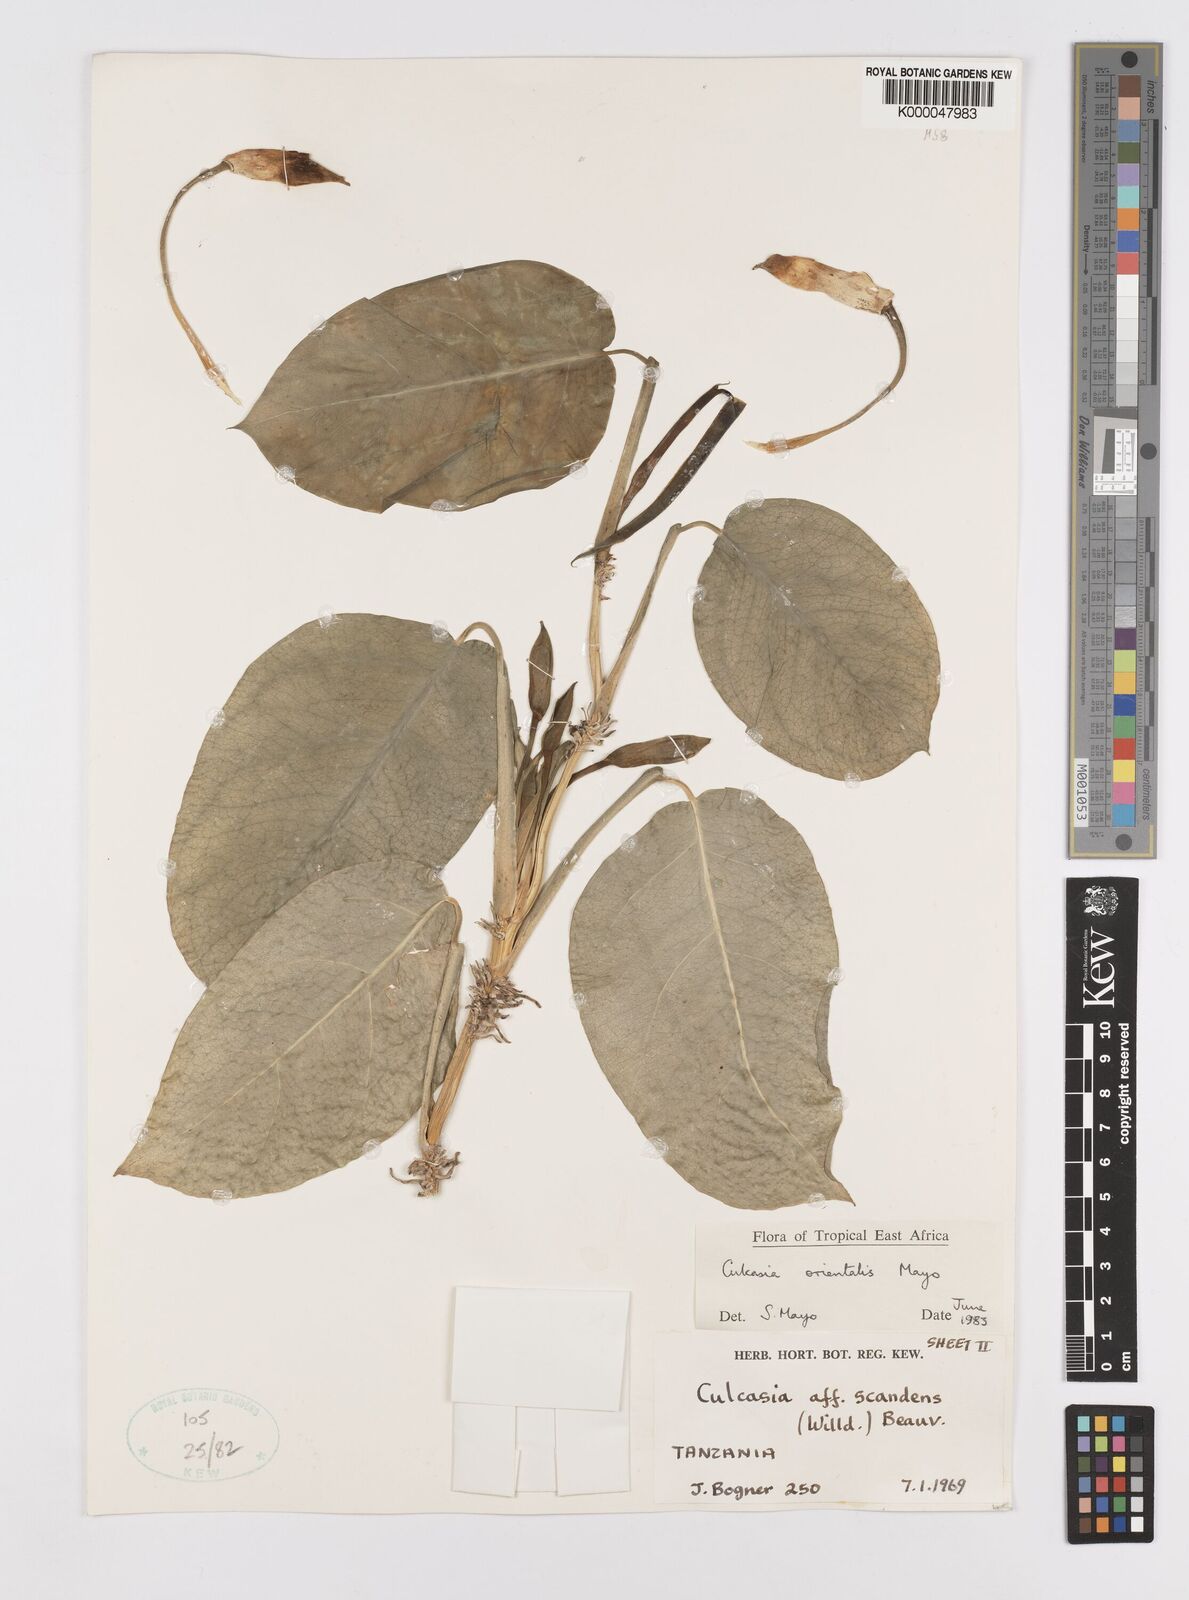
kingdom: Plantae
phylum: Tracheophyta
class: Liliopsida
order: Alismatales
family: Araceae
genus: Culcasia
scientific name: Culcasia orientalis
